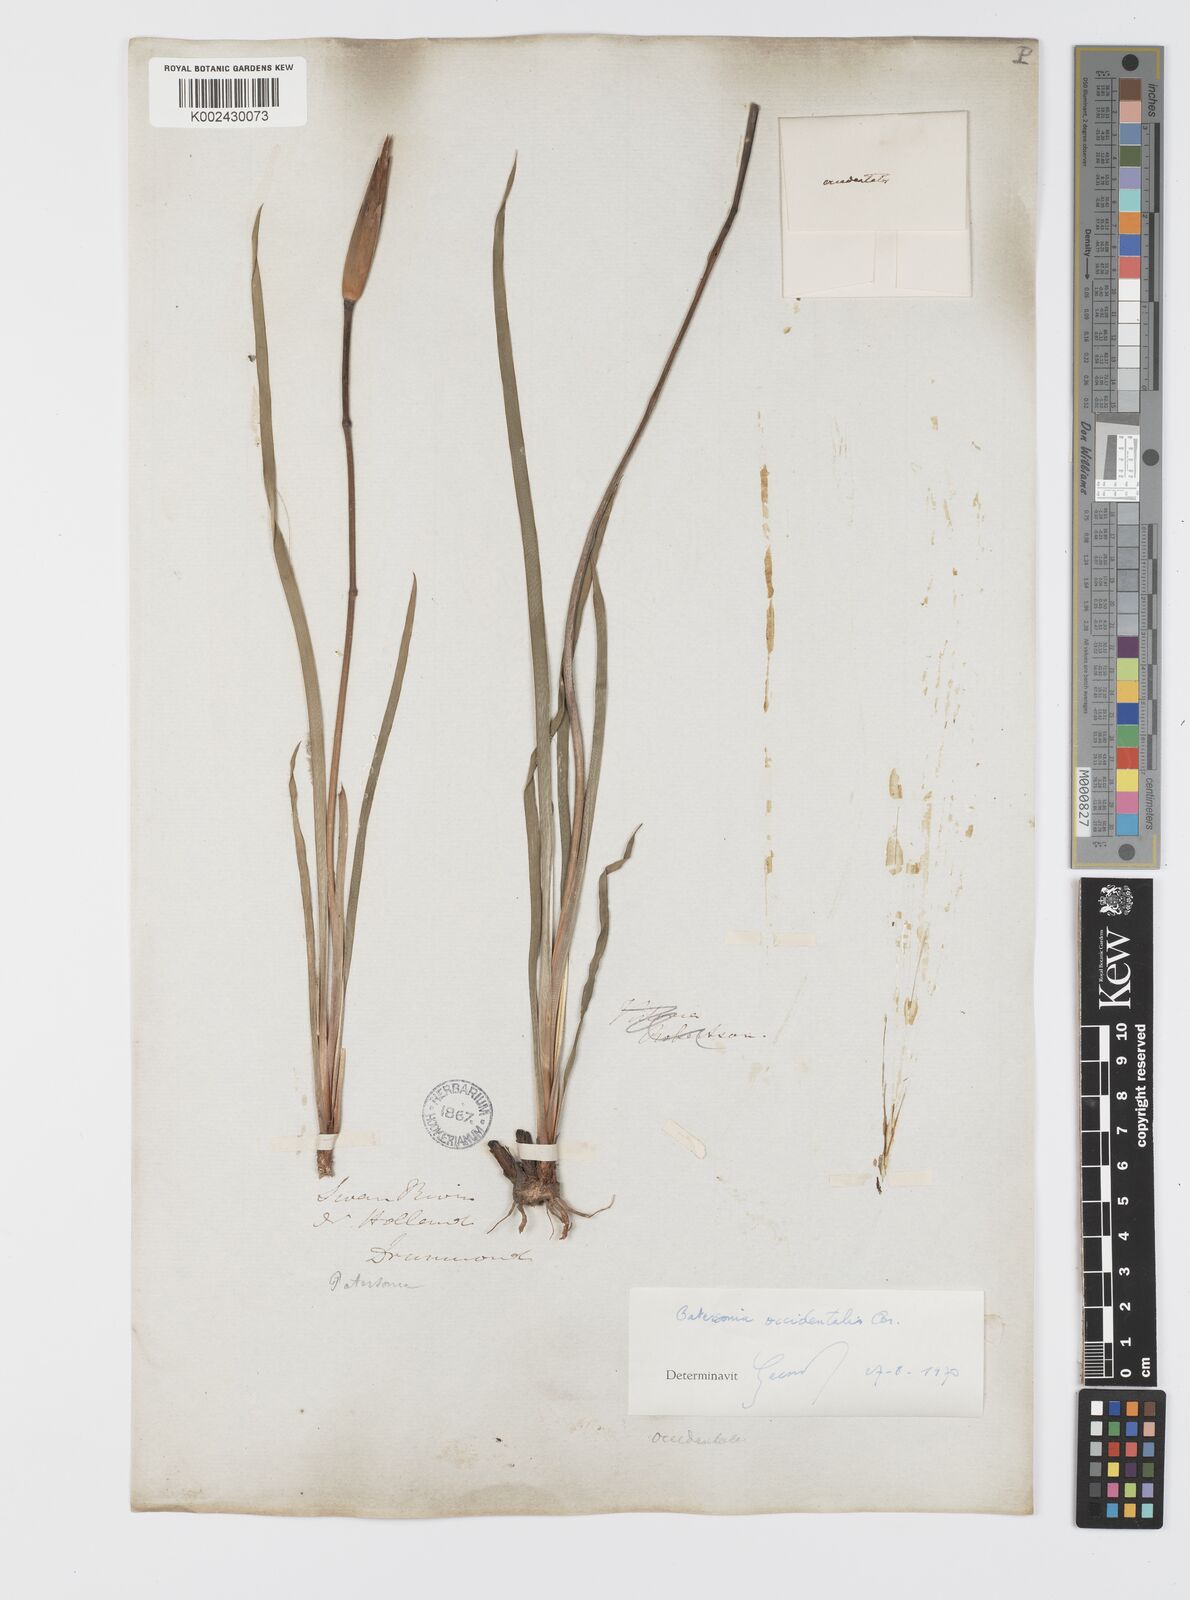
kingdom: Plantae
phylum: Tracheophyta
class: Liliopsida
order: Asparagales
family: Iridaceae
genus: Patersonia
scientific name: Patersonia occidentalis
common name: Long purple-flag
